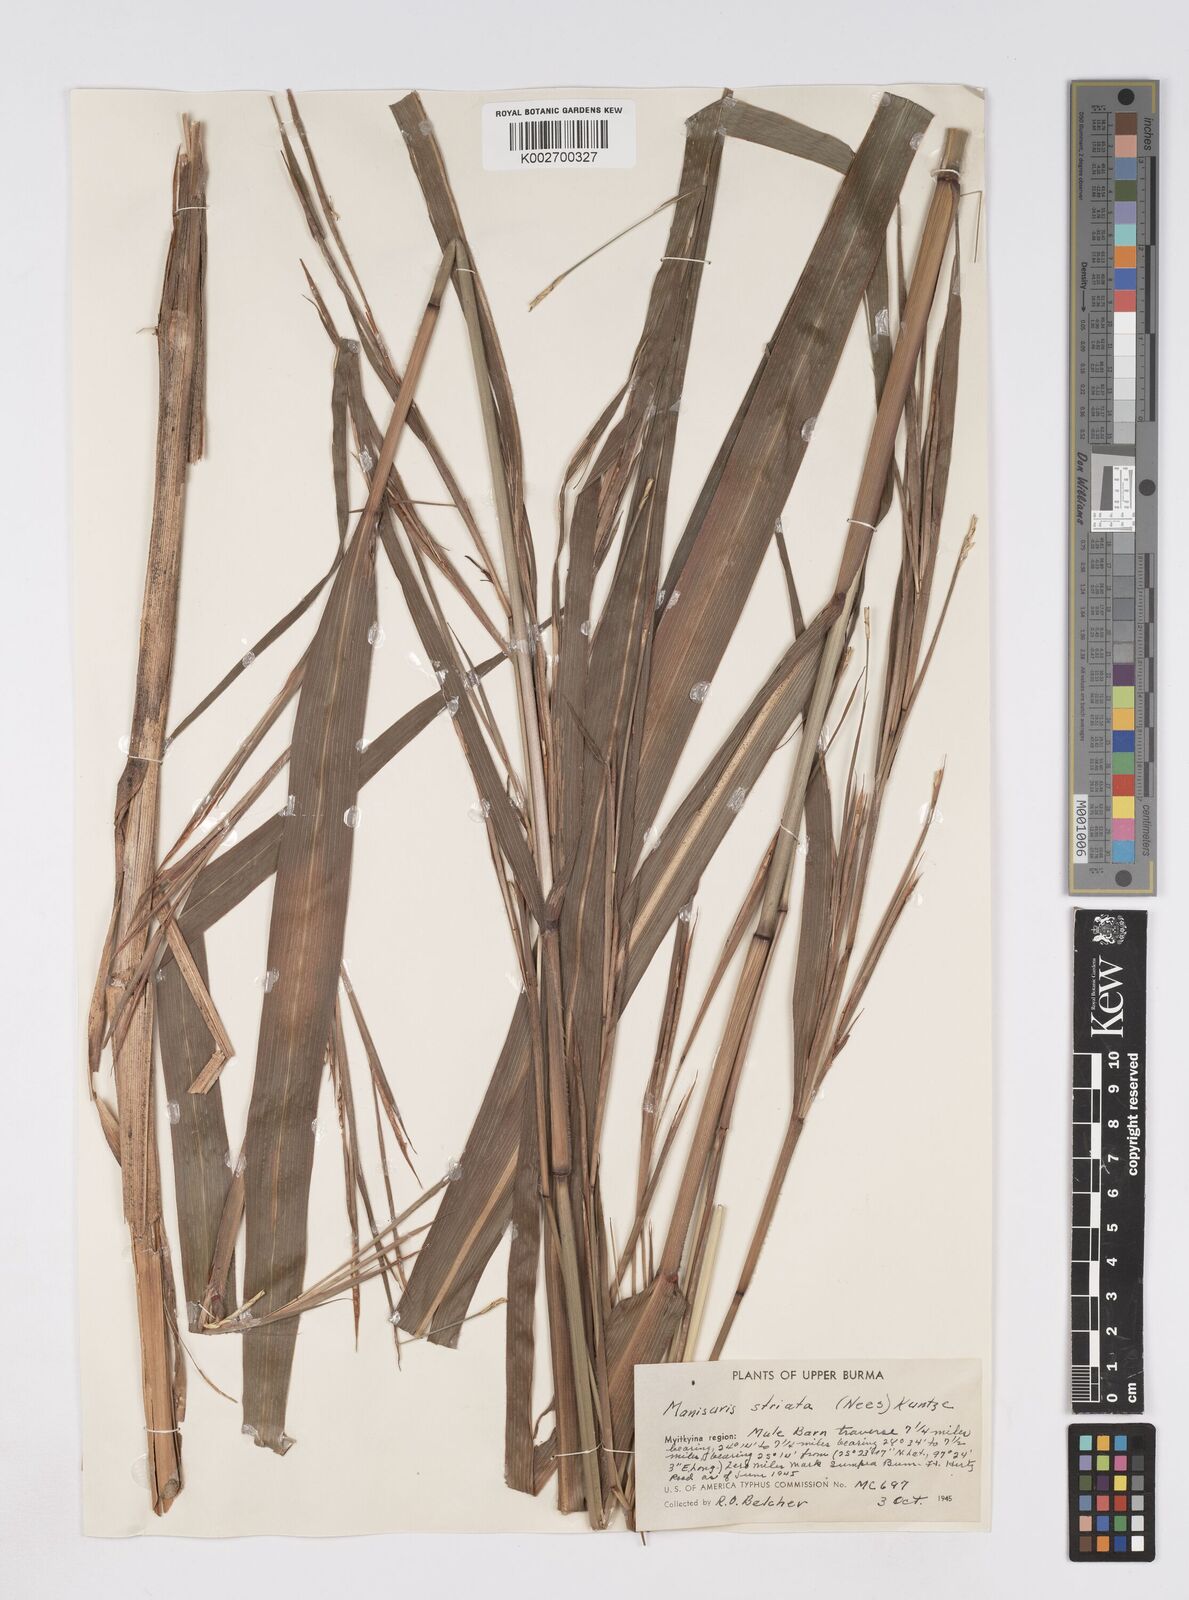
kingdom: Plantae
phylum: Tracheophyta
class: Liliopsida
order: Poales
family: Poaceae
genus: Rottboellia
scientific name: Rottboellia striata
